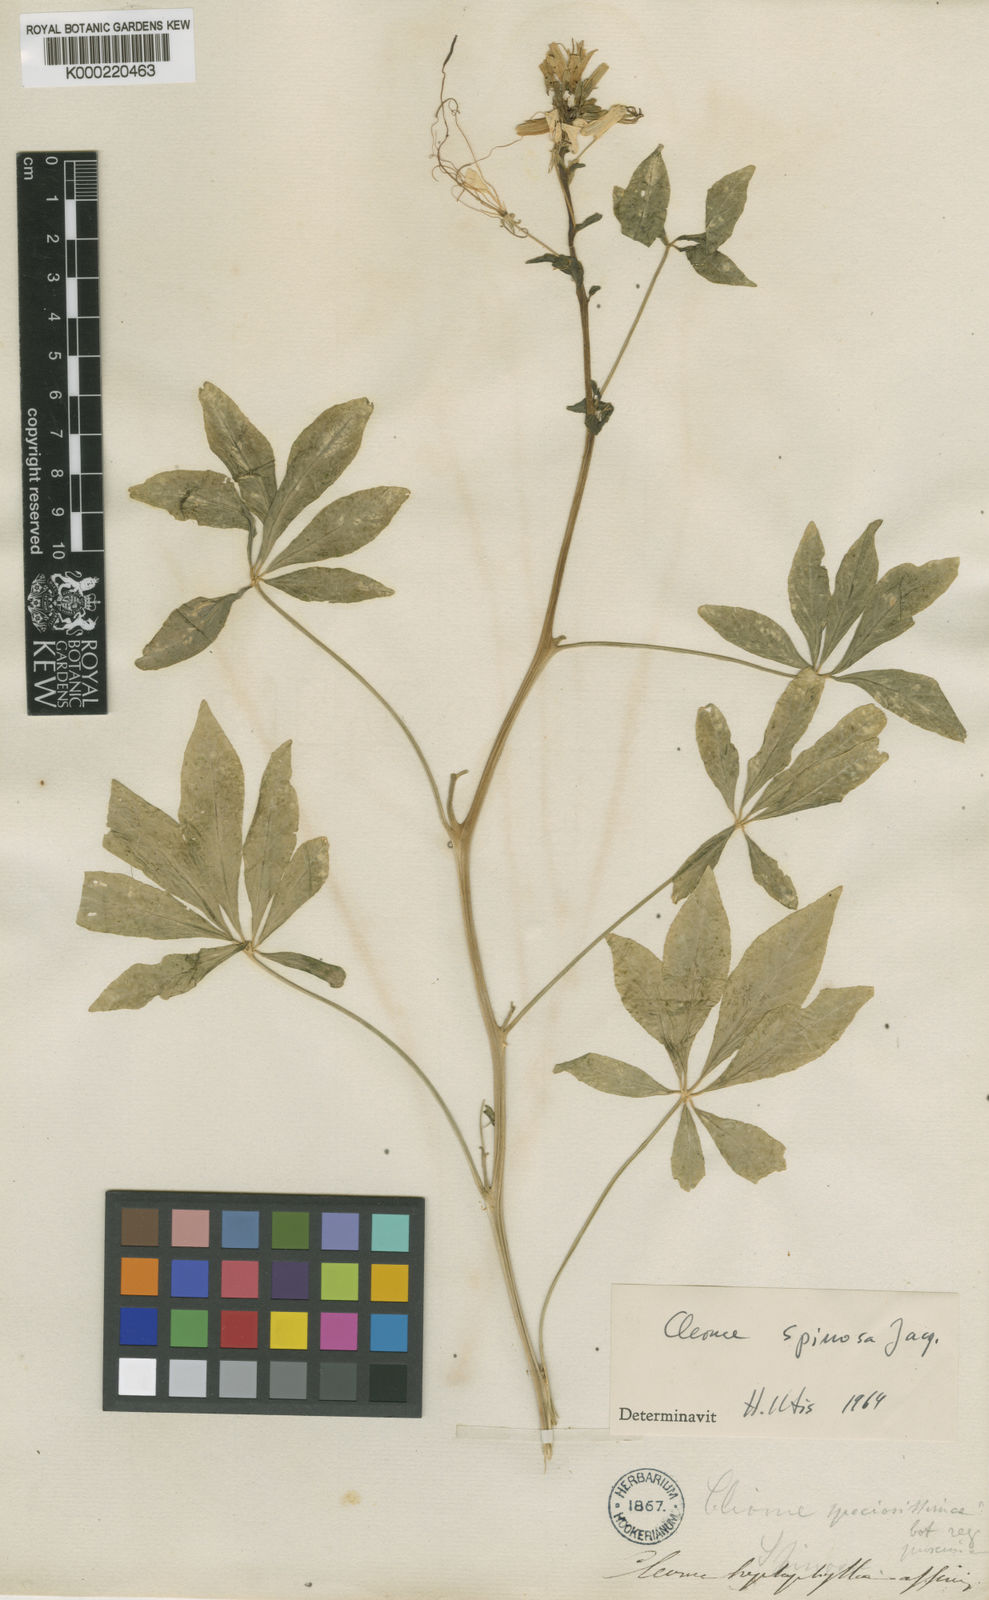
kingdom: Plantae
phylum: Tracheophyta
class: Magnoliopsida
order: Brassicales
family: Cleomaceae
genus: Cleoserrata
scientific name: Cleoserrata speciosa
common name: Volantines preciosos
